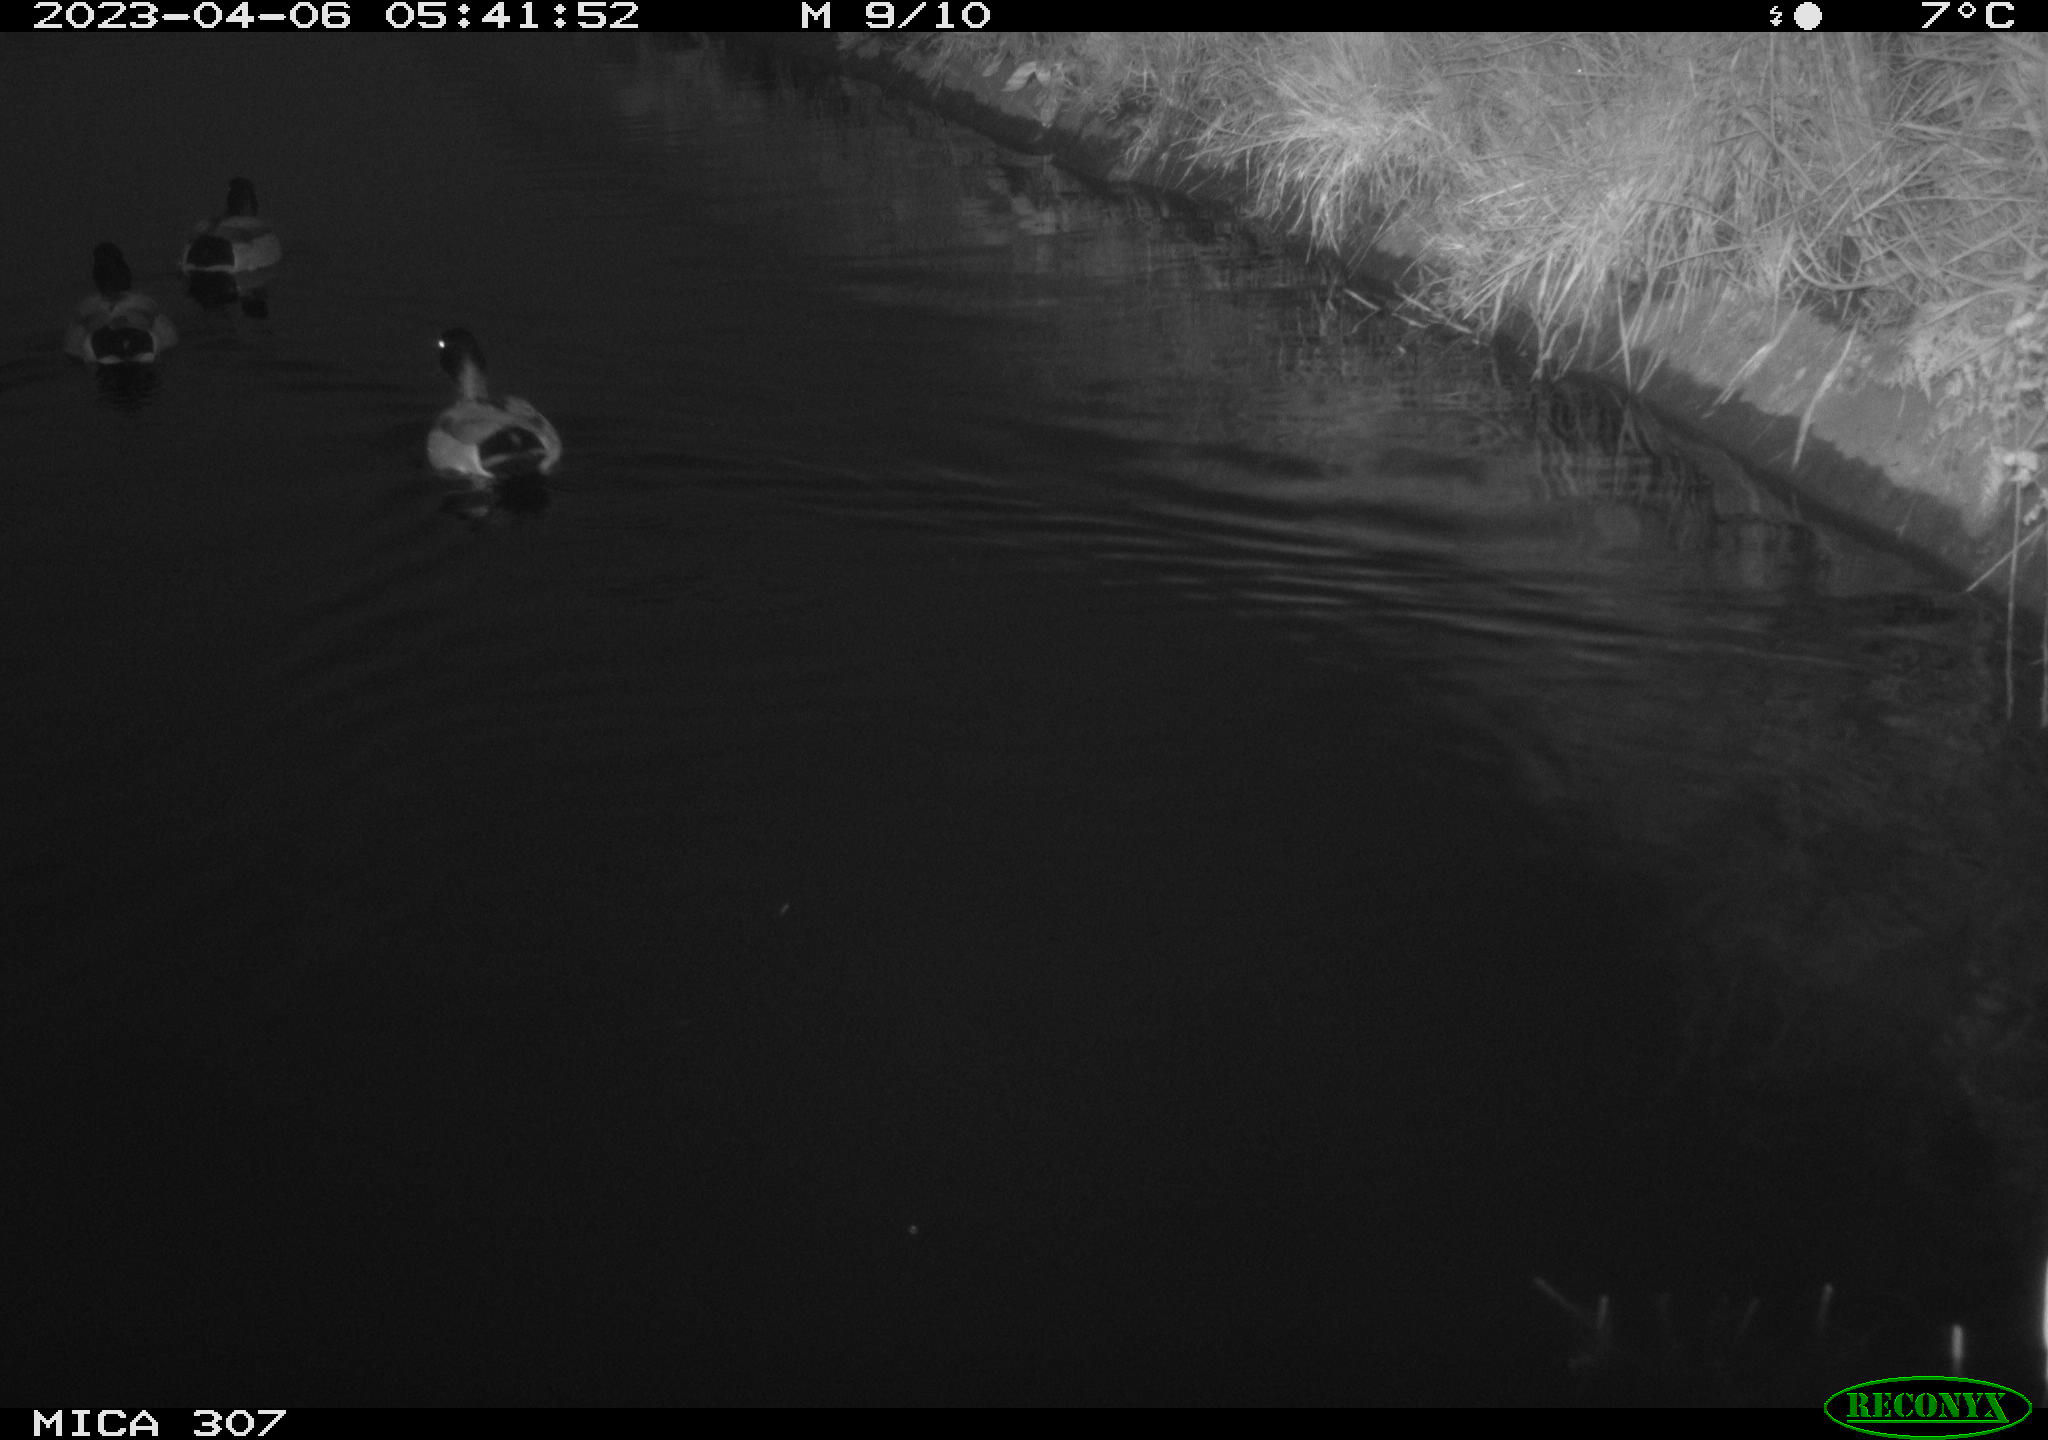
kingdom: Animalia
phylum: Chordata
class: Aves
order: Anseriformes
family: Anatidae
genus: Anas
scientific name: Anas
